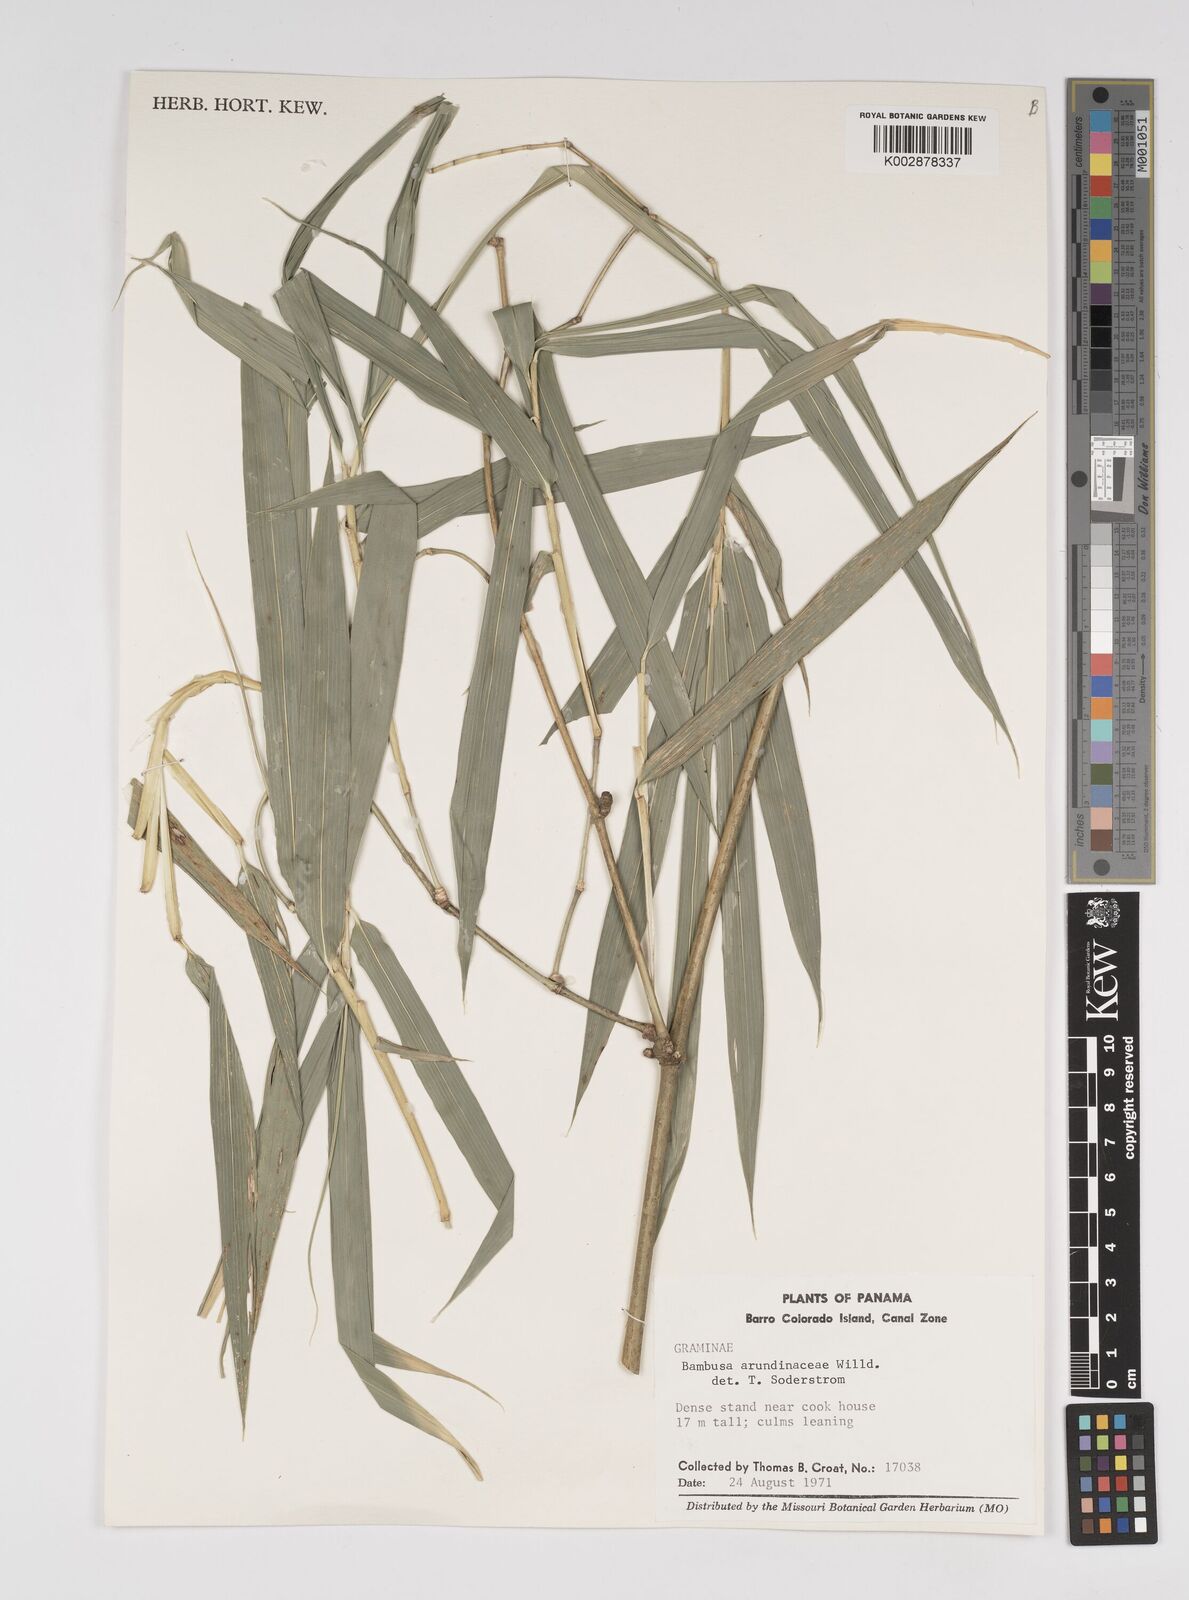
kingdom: Plantae
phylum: Tracheophyta
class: Liliopsida
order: Poales
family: Poaceae
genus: Bambusa
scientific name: Bambusa bambos
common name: Indian thorny bamboo
